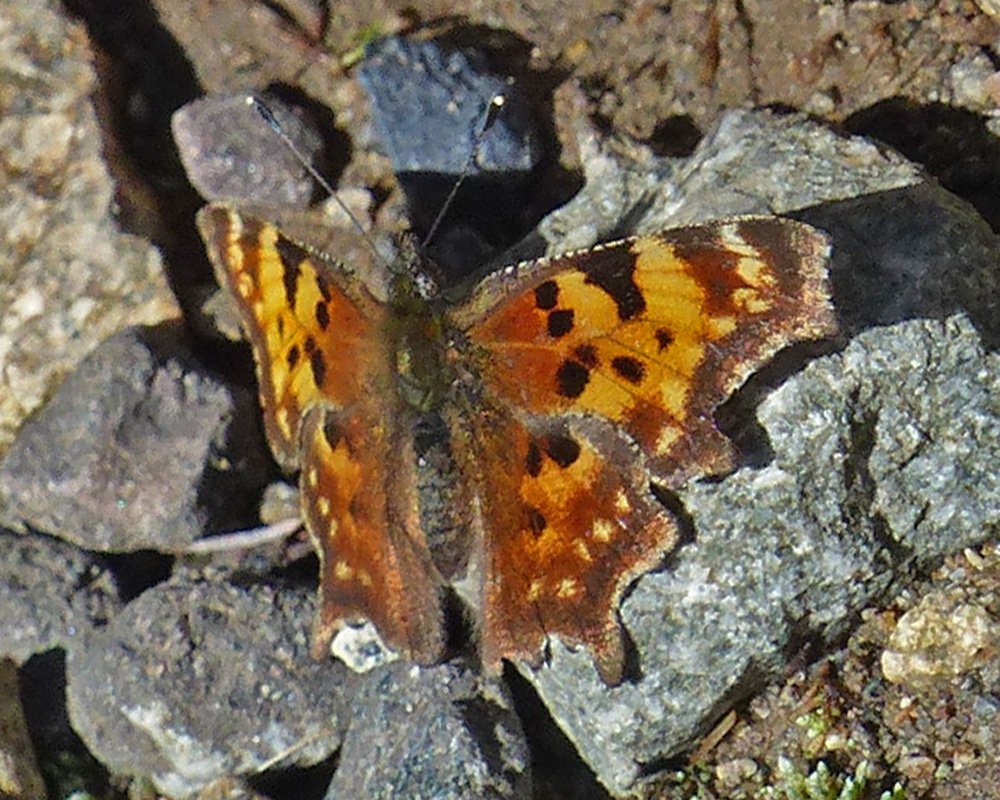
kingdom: Animalia
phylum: Arthropoda
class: Insecta
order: Lepidoptera
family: Nymphalidae
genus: Polygonia
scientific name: Polygonia faunus
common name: Green Comma
